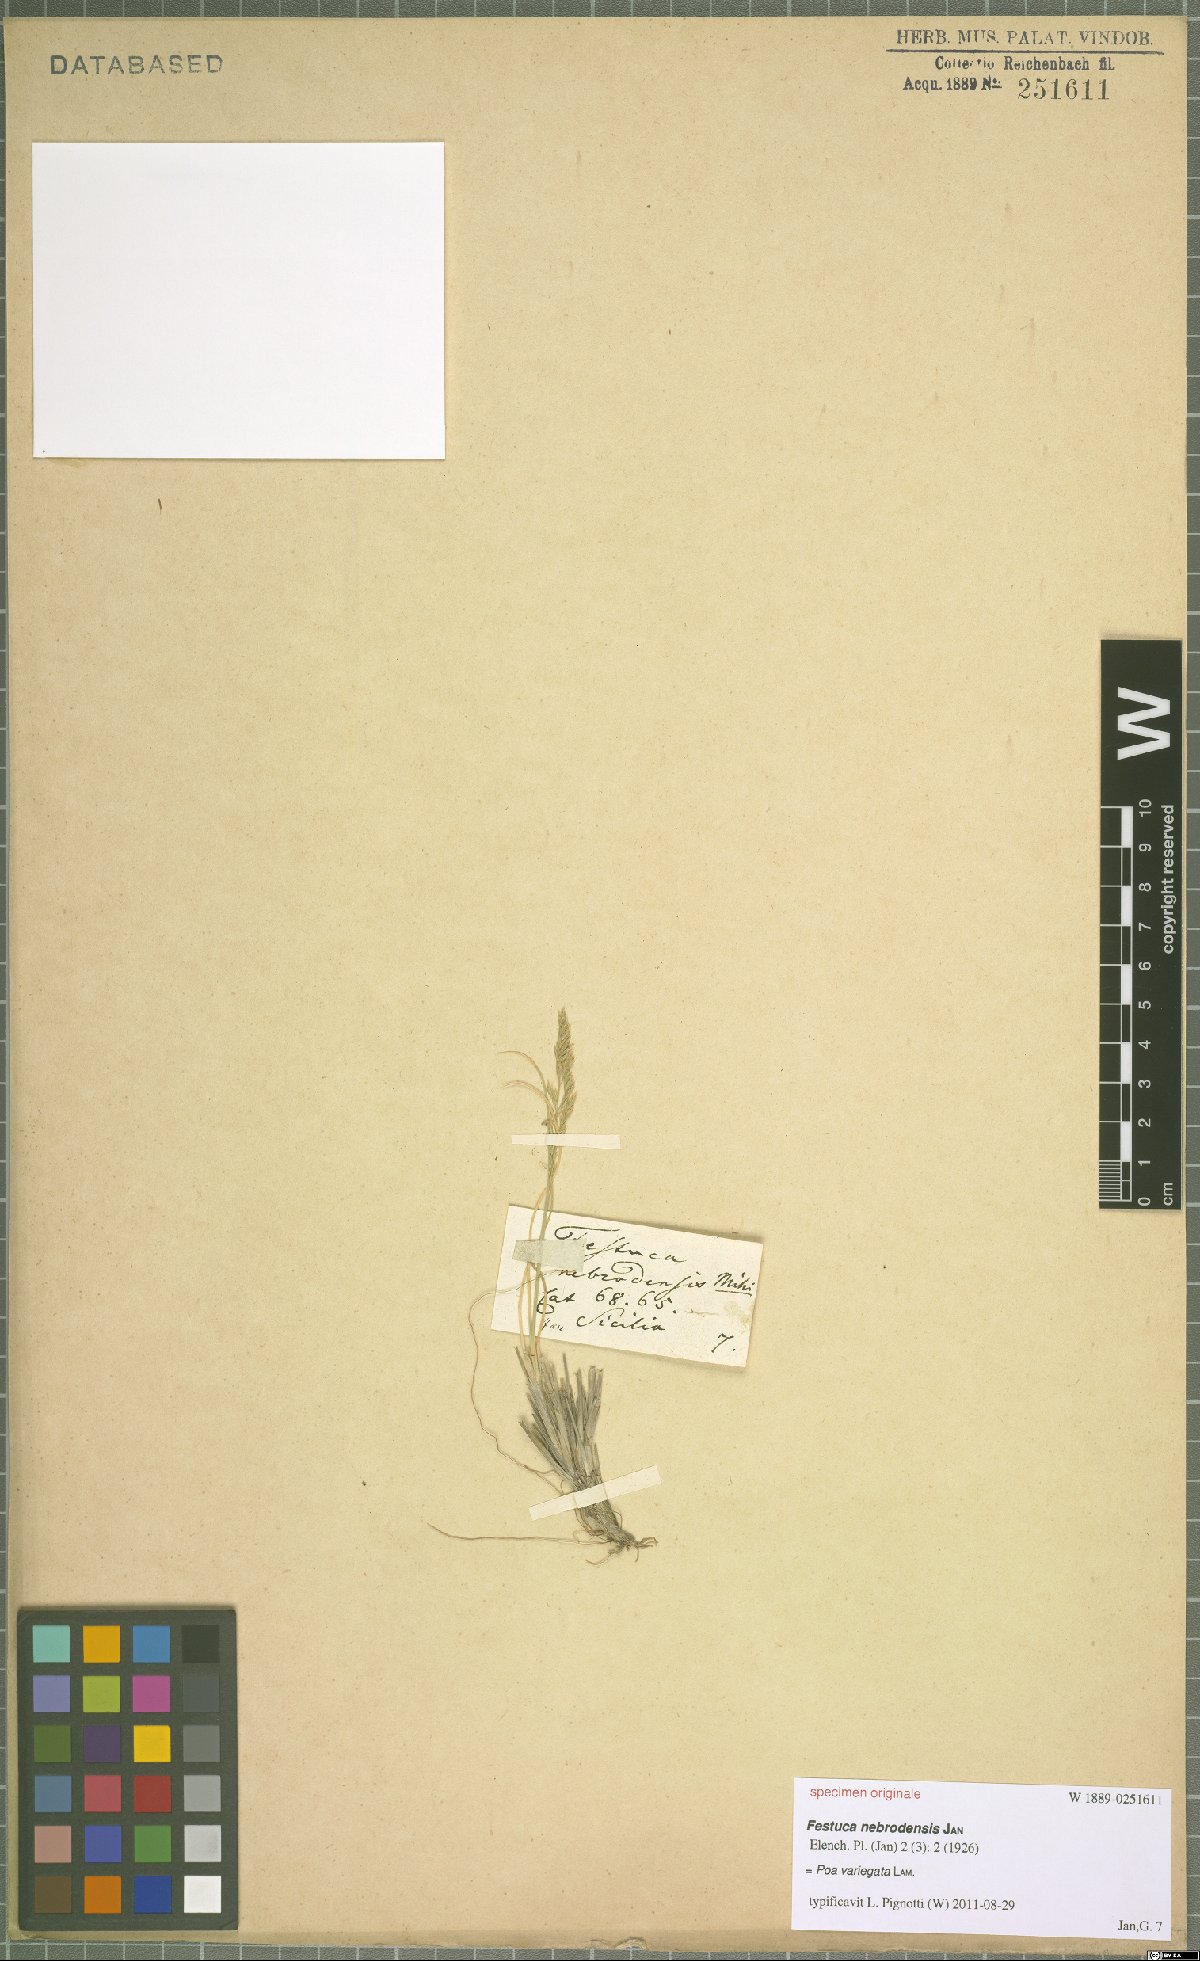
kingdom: Plantae
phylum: Tracheophyta
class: Liliopsida
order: Poales
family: Poaceae
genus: Bellardiochloa
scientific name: Bellardiochloa variegata
